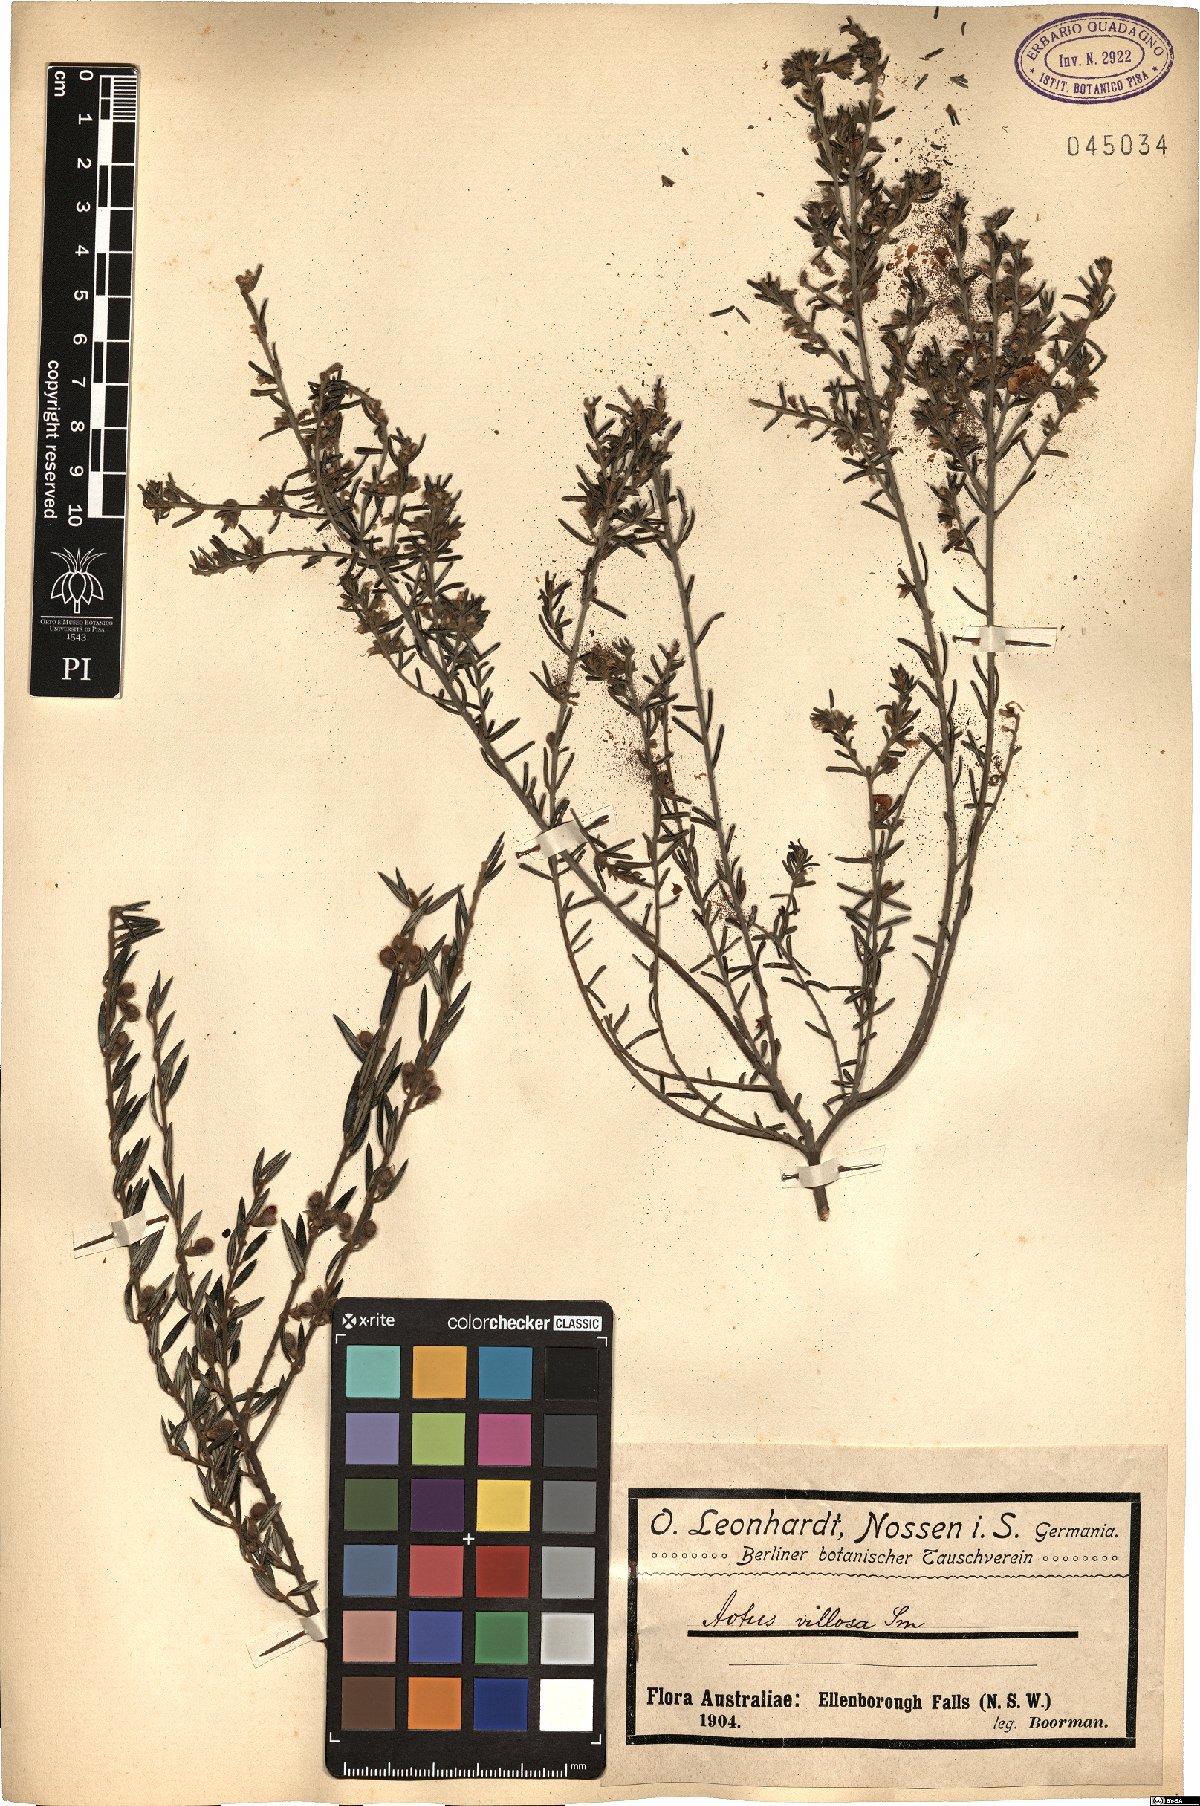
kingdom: Plantae
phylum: Tracheophyta
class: Magnoliopsida
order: Fabales
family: Fabaceae
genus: Aotus
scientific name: Aotus ericoides
